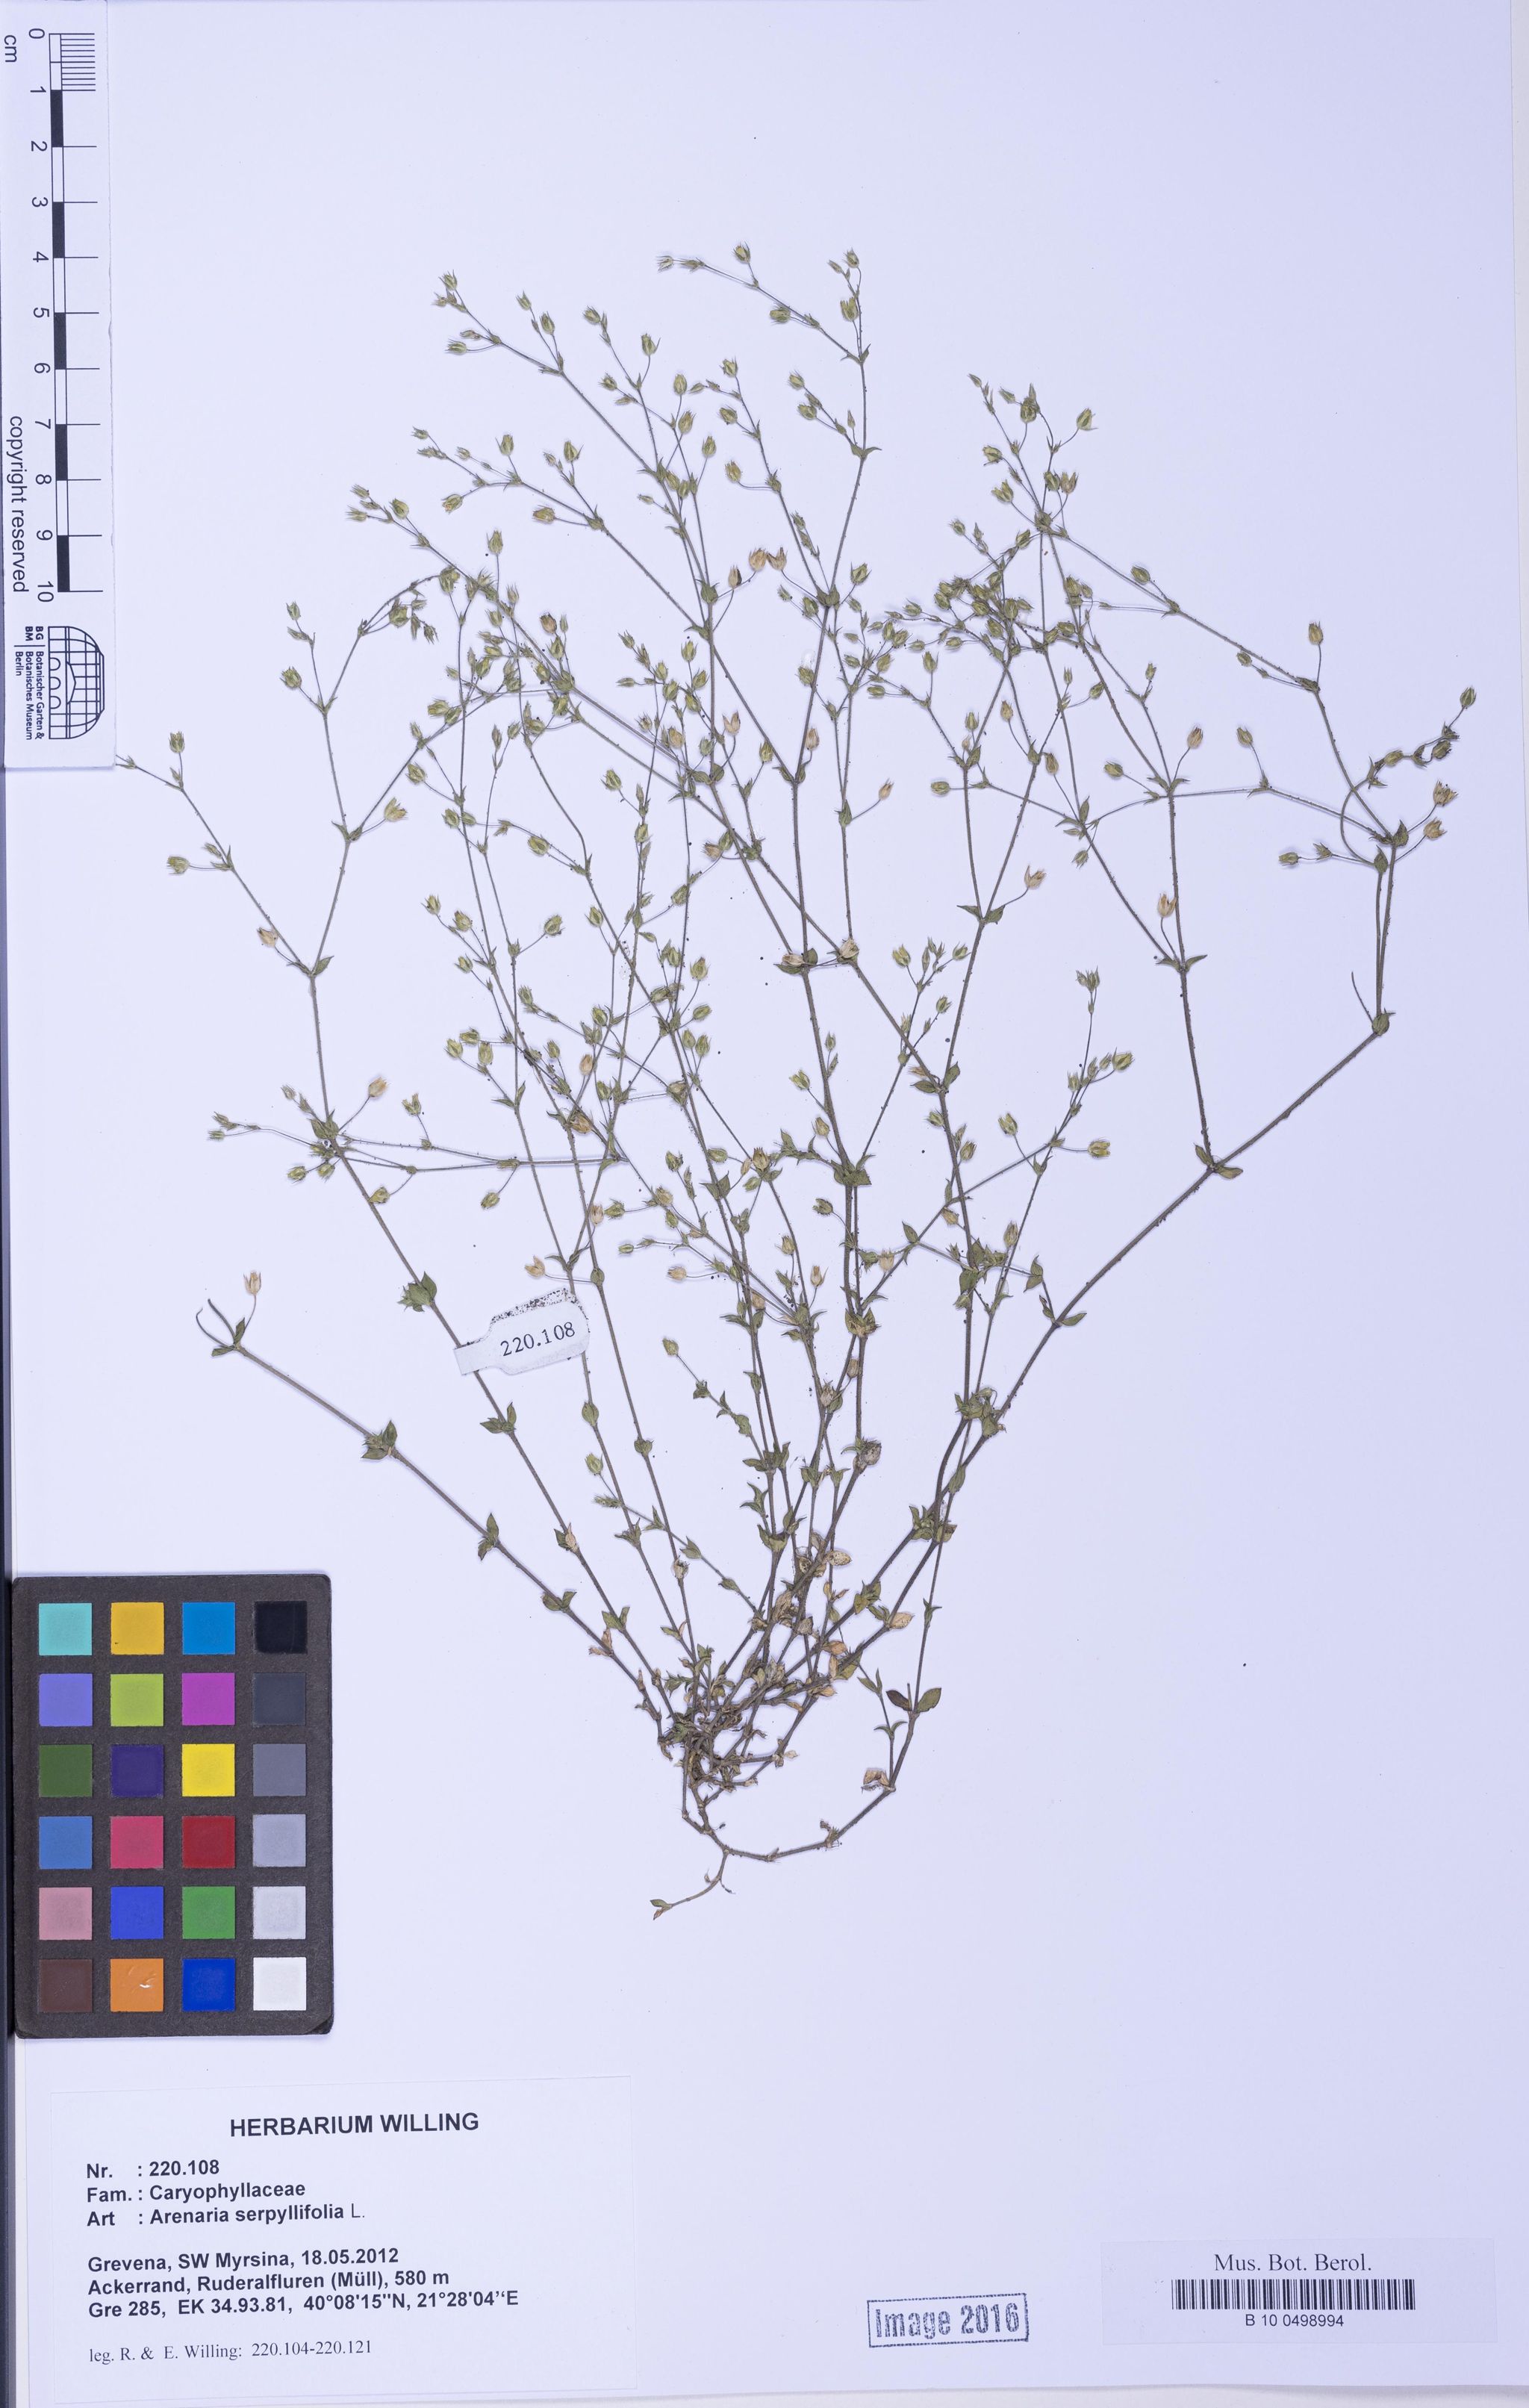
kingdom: Plantae
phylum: Tracheophyta
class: Magnoliopsida
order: Caryophyllales
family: Caryophyllaceae
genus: Arenaria
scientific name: Arenaria serpyllifolia
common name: Thyme-leaved sandwort
